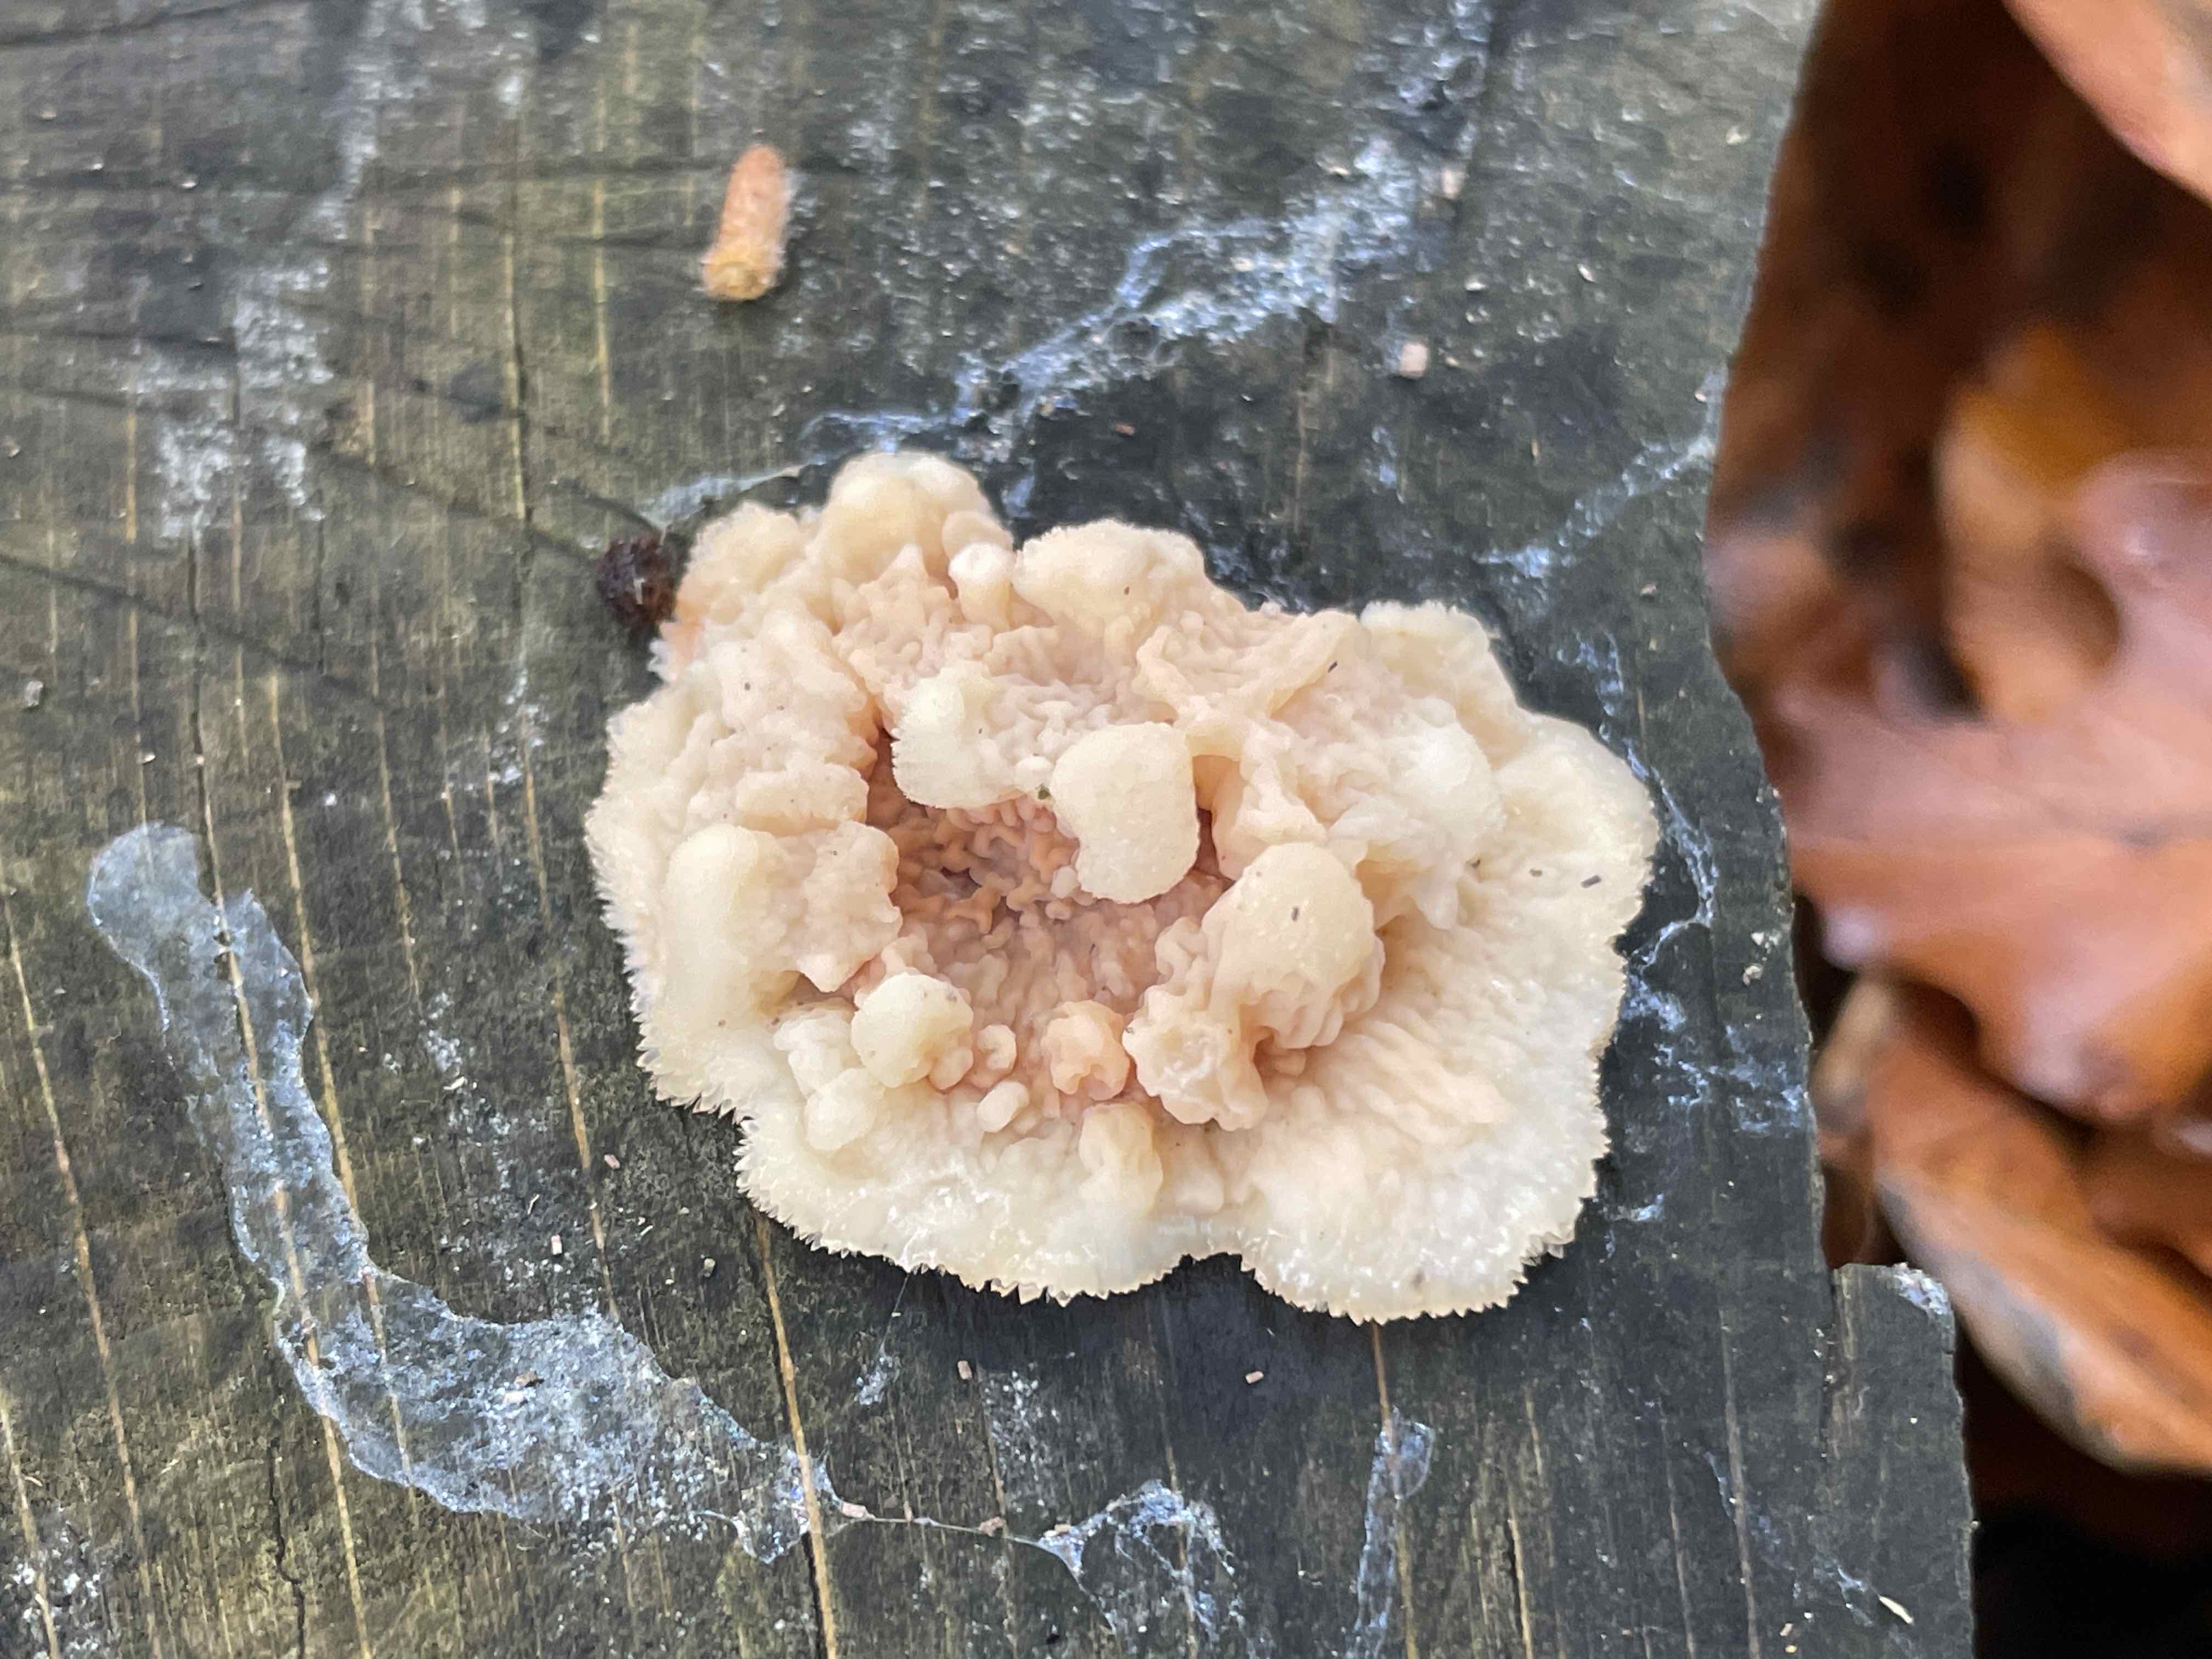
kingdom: Fungi
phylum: Basidiomycota
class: Agaricomycetes
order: Polyporales
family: Meruliaceae
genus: Phlebia
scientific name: Phlebia tremellosa
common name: bævrende åresvamp
